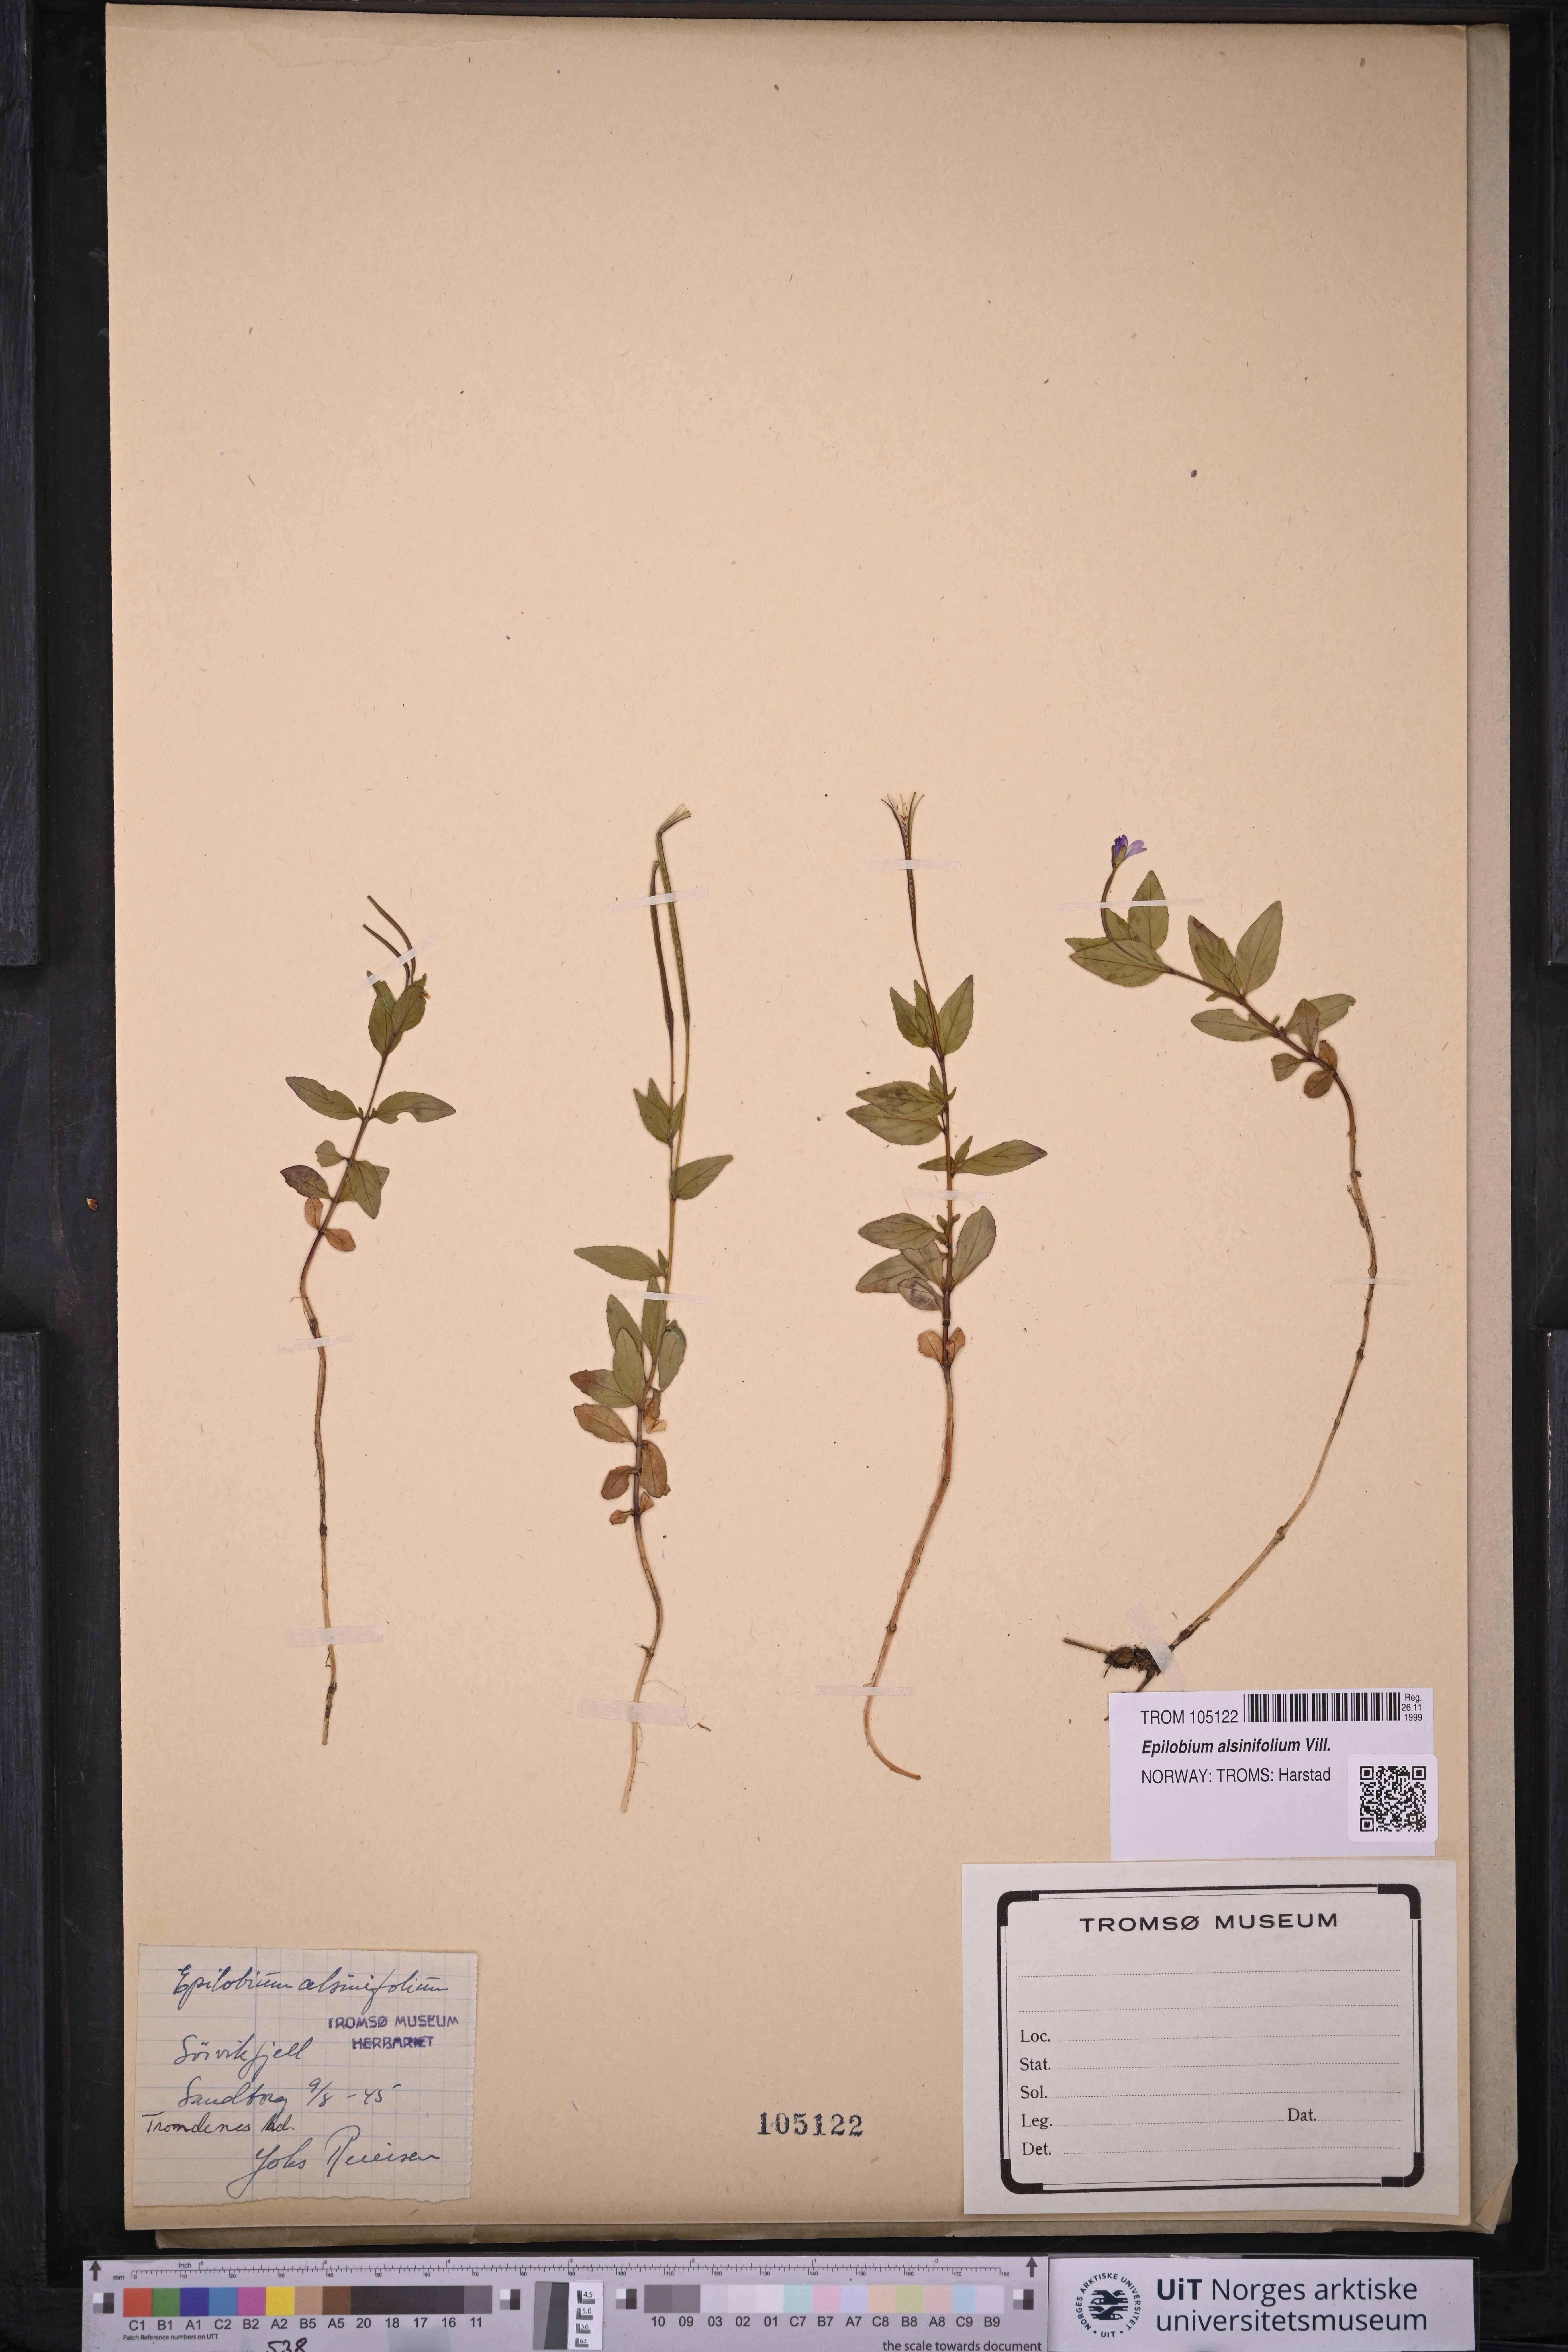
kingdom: Plantae
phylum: Tracheophyta
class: Magnoliopsida
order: Myrtales
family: Onagraceae
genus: Epilobium
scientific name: Epilobium alsinifolium
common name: Chickweed willowherb
